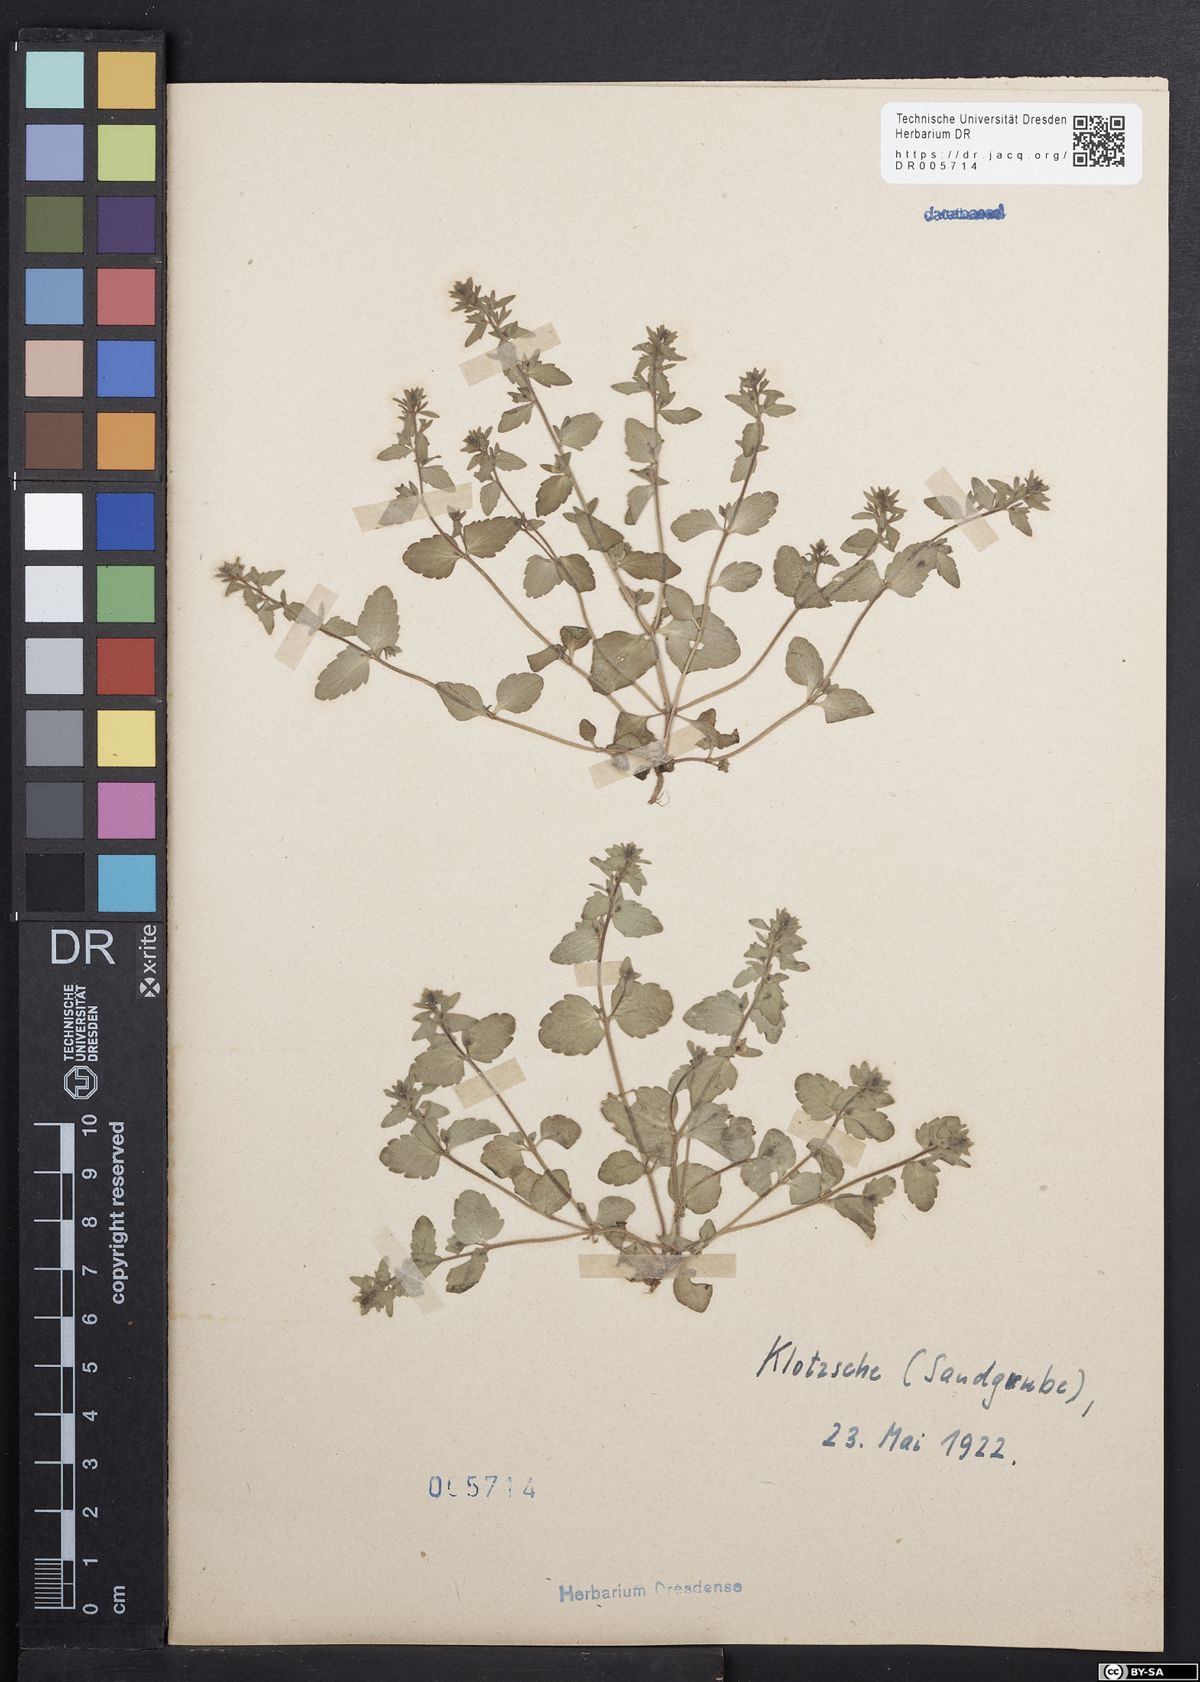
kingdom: Plantae
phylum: Tracheophyta
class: Magnoliopsida
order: Lamiales
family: Plantaginaceae
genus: Veronica
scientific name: Veronica serpyllifolia
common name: Thyme-leaved speedwell
